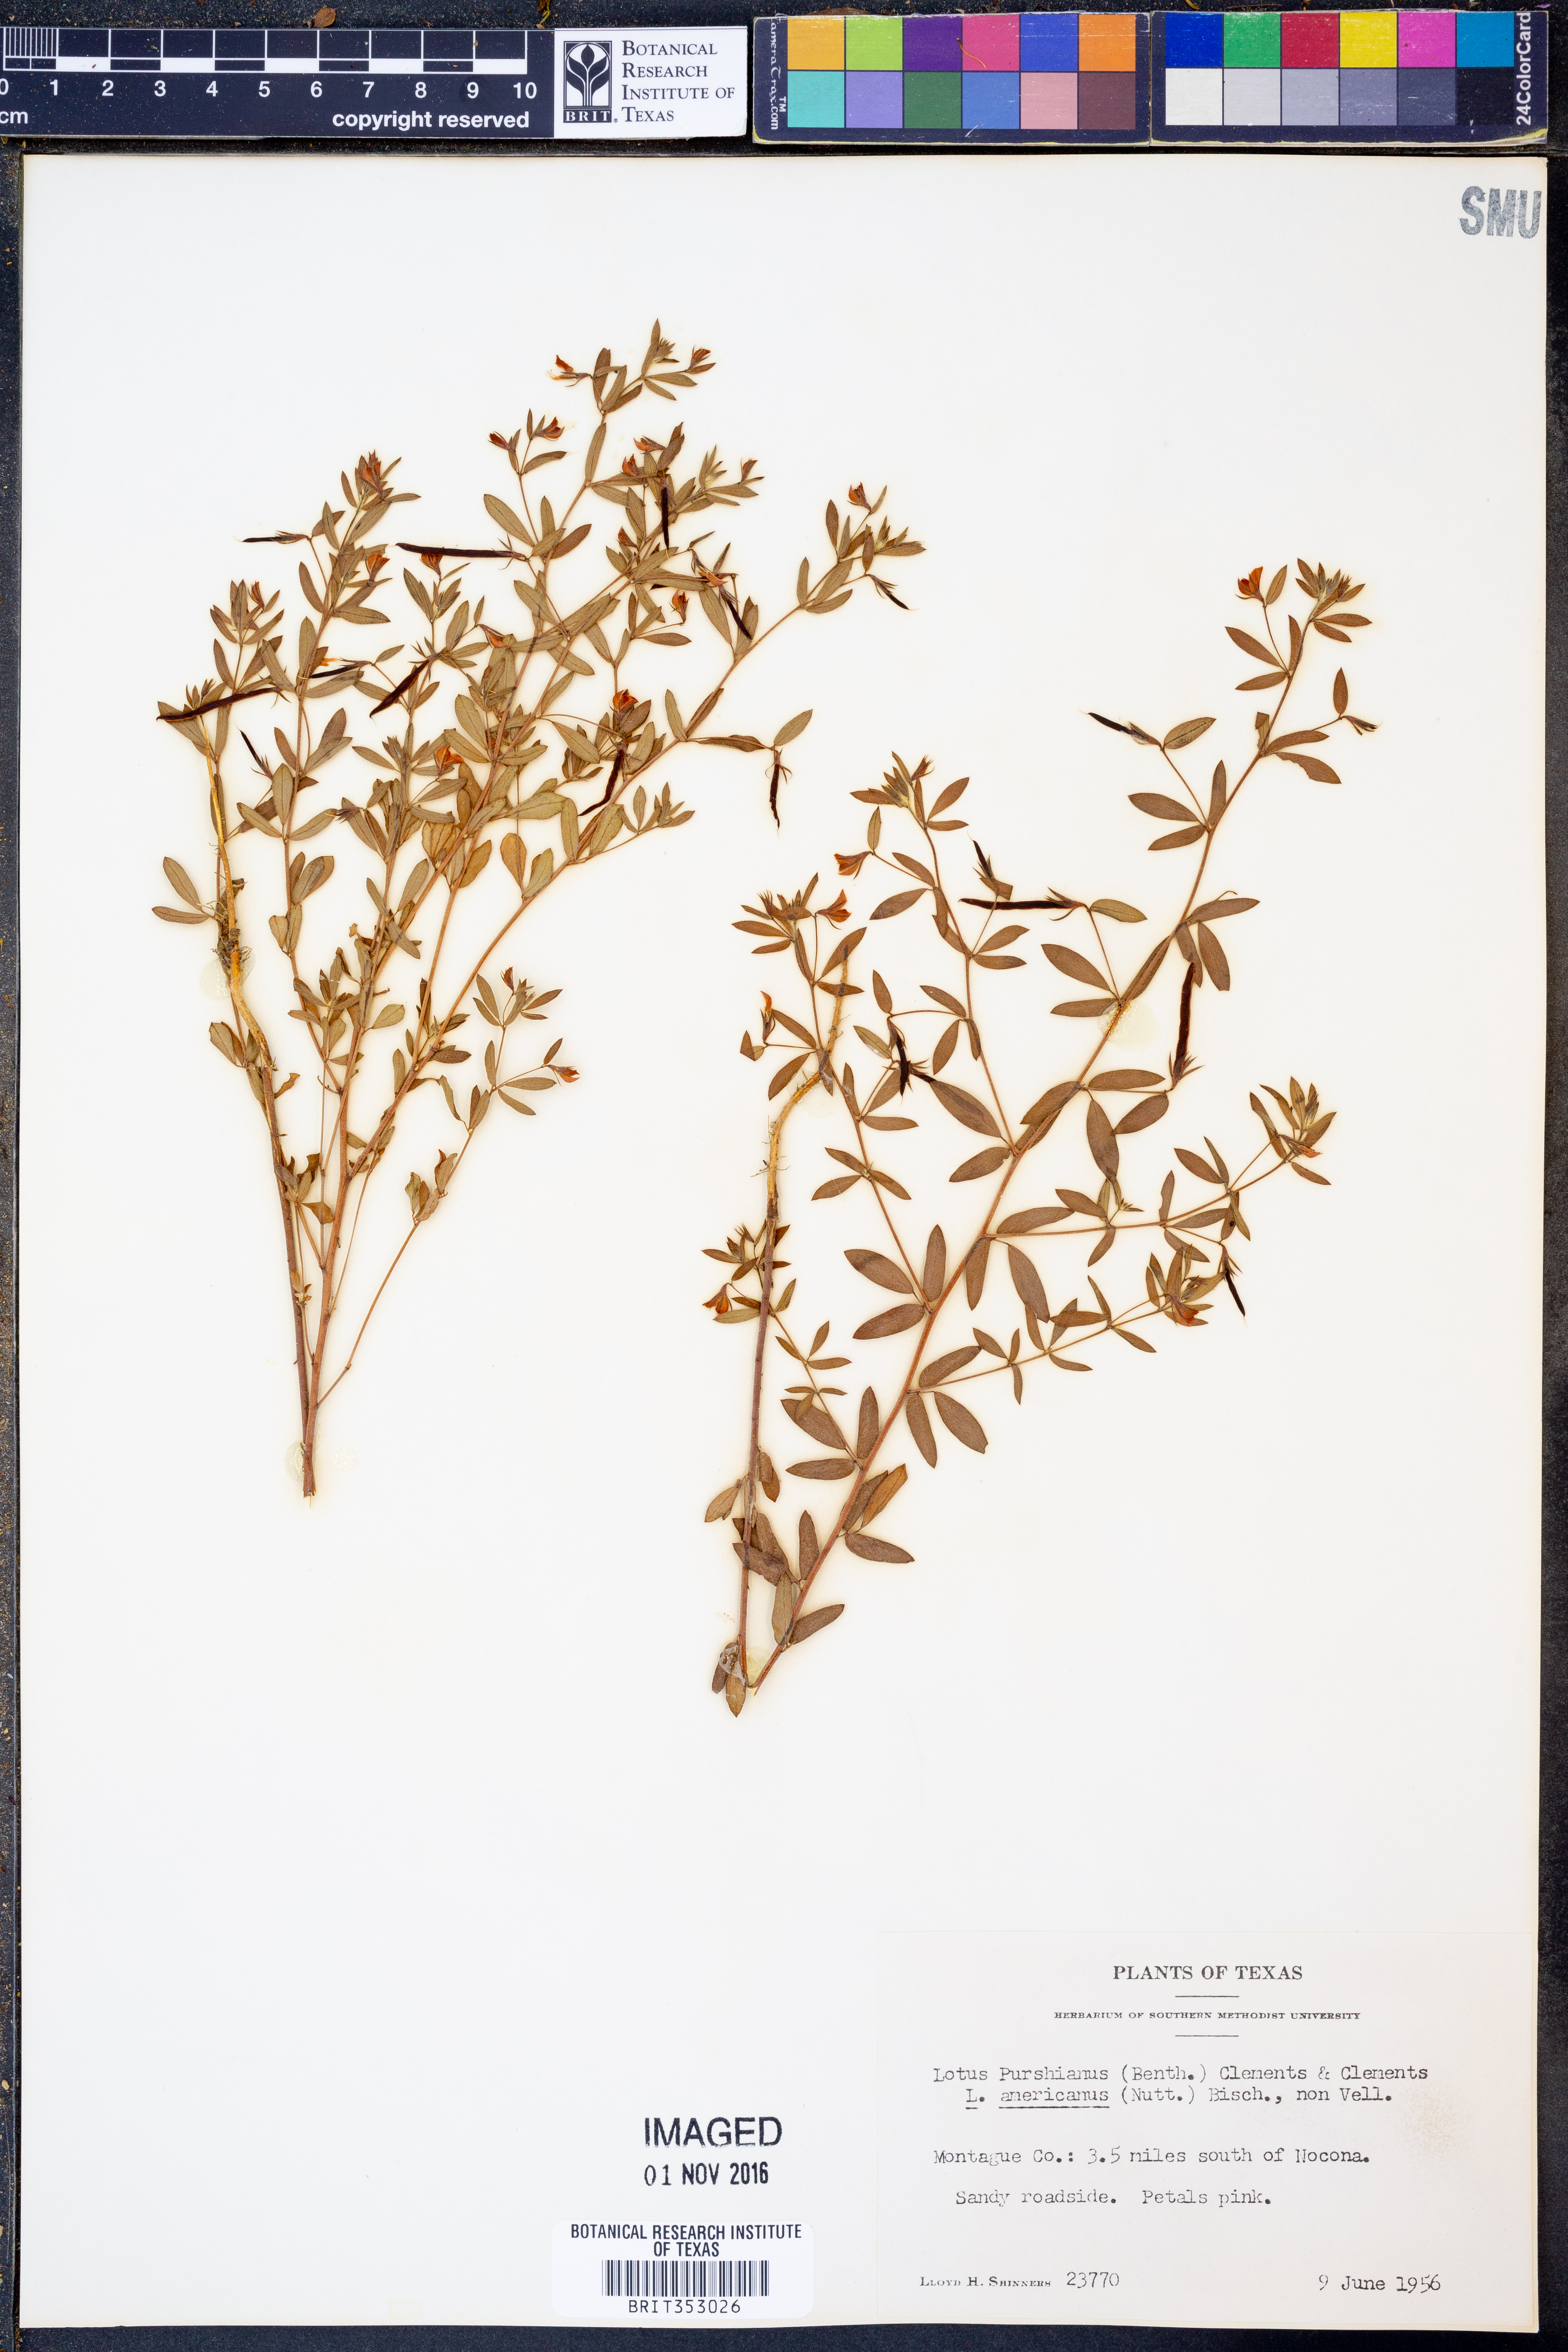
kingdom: Plantae
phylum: Tracheophyta
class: Magnoliopsida
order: Fabales
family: Fabaceae
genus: Acmispon
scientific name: Acmispon americanus
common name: American bird's-foot trefoil
